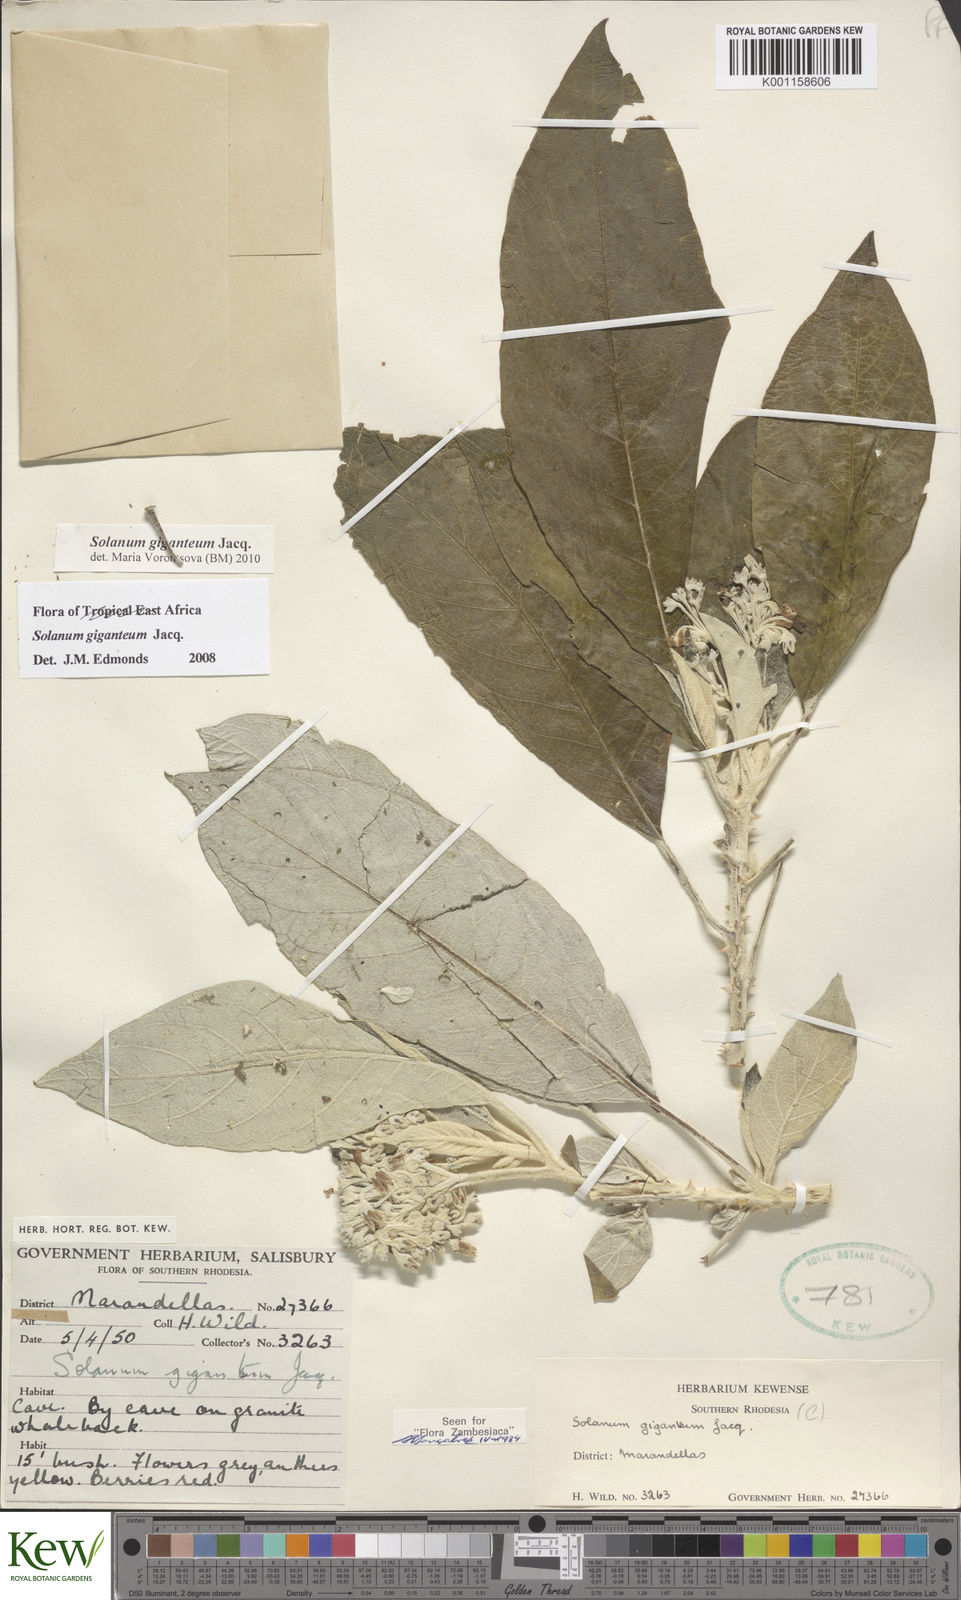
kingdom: Plantae
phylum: Tracheophyta
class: Magnoliopsida
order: Solanales
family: Solanaceae
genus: Solanum
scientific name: Solanum giganteum
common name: Healing-leaf-tree
